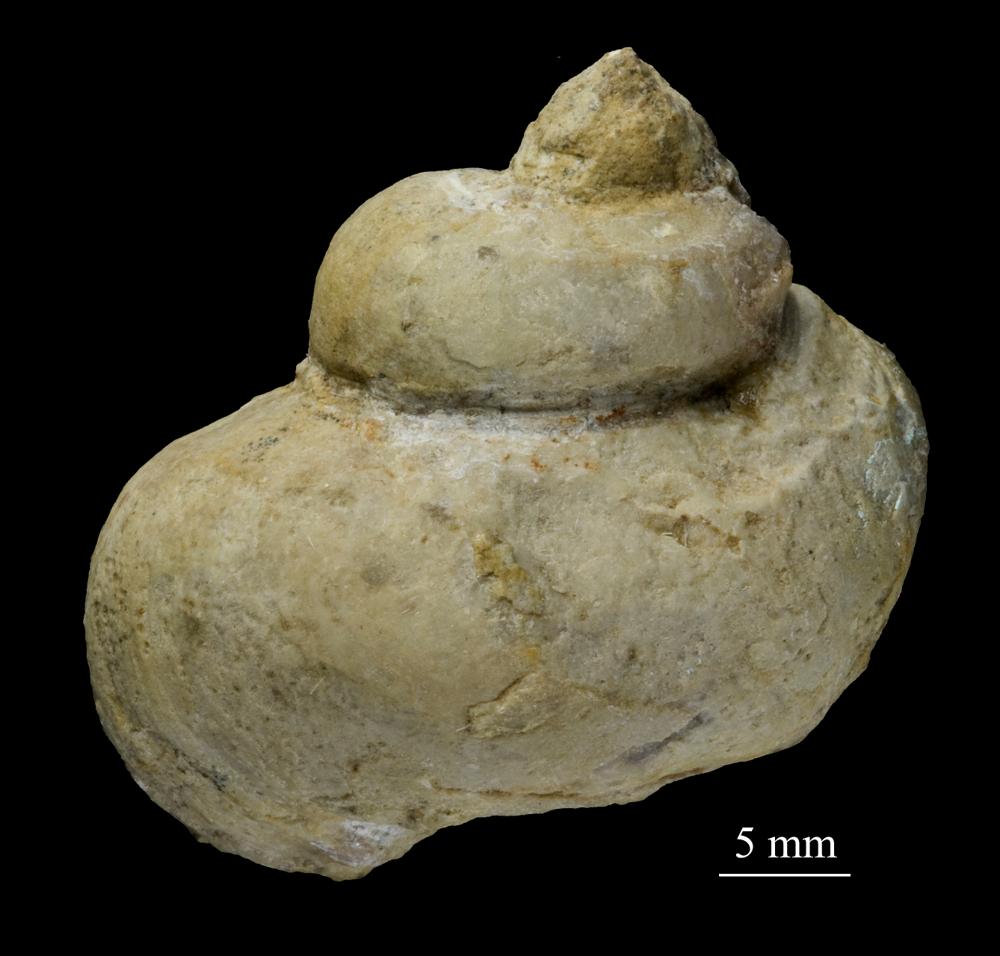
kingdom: Animalia
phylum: Mollusca
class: Gastropoda
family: Holopeidae
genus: Holopea
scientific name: Holopea Turbo balticus
